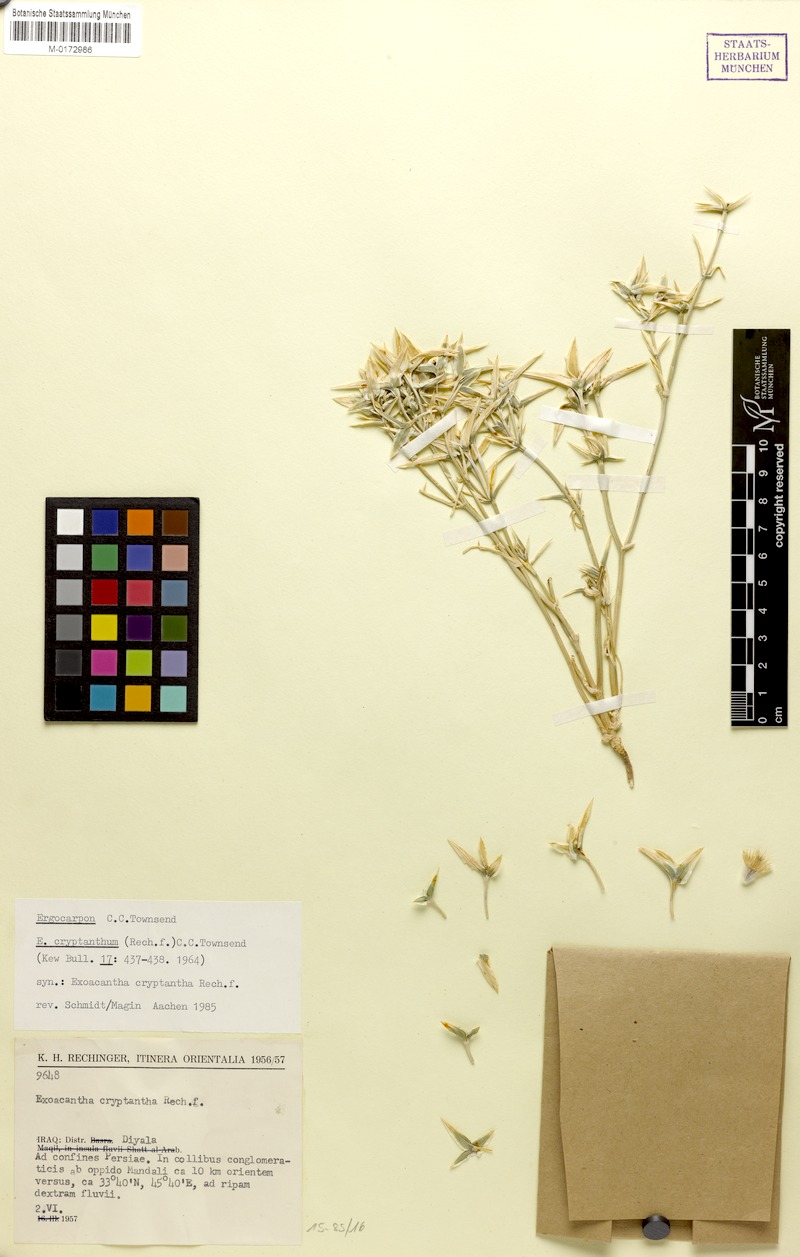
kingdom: Plantae
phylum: Tracheophyta
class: Magnoliopsida
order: Apiales
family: Apiaceae
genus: Ergocarpon
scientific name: Ergocarpon cryptanthum
